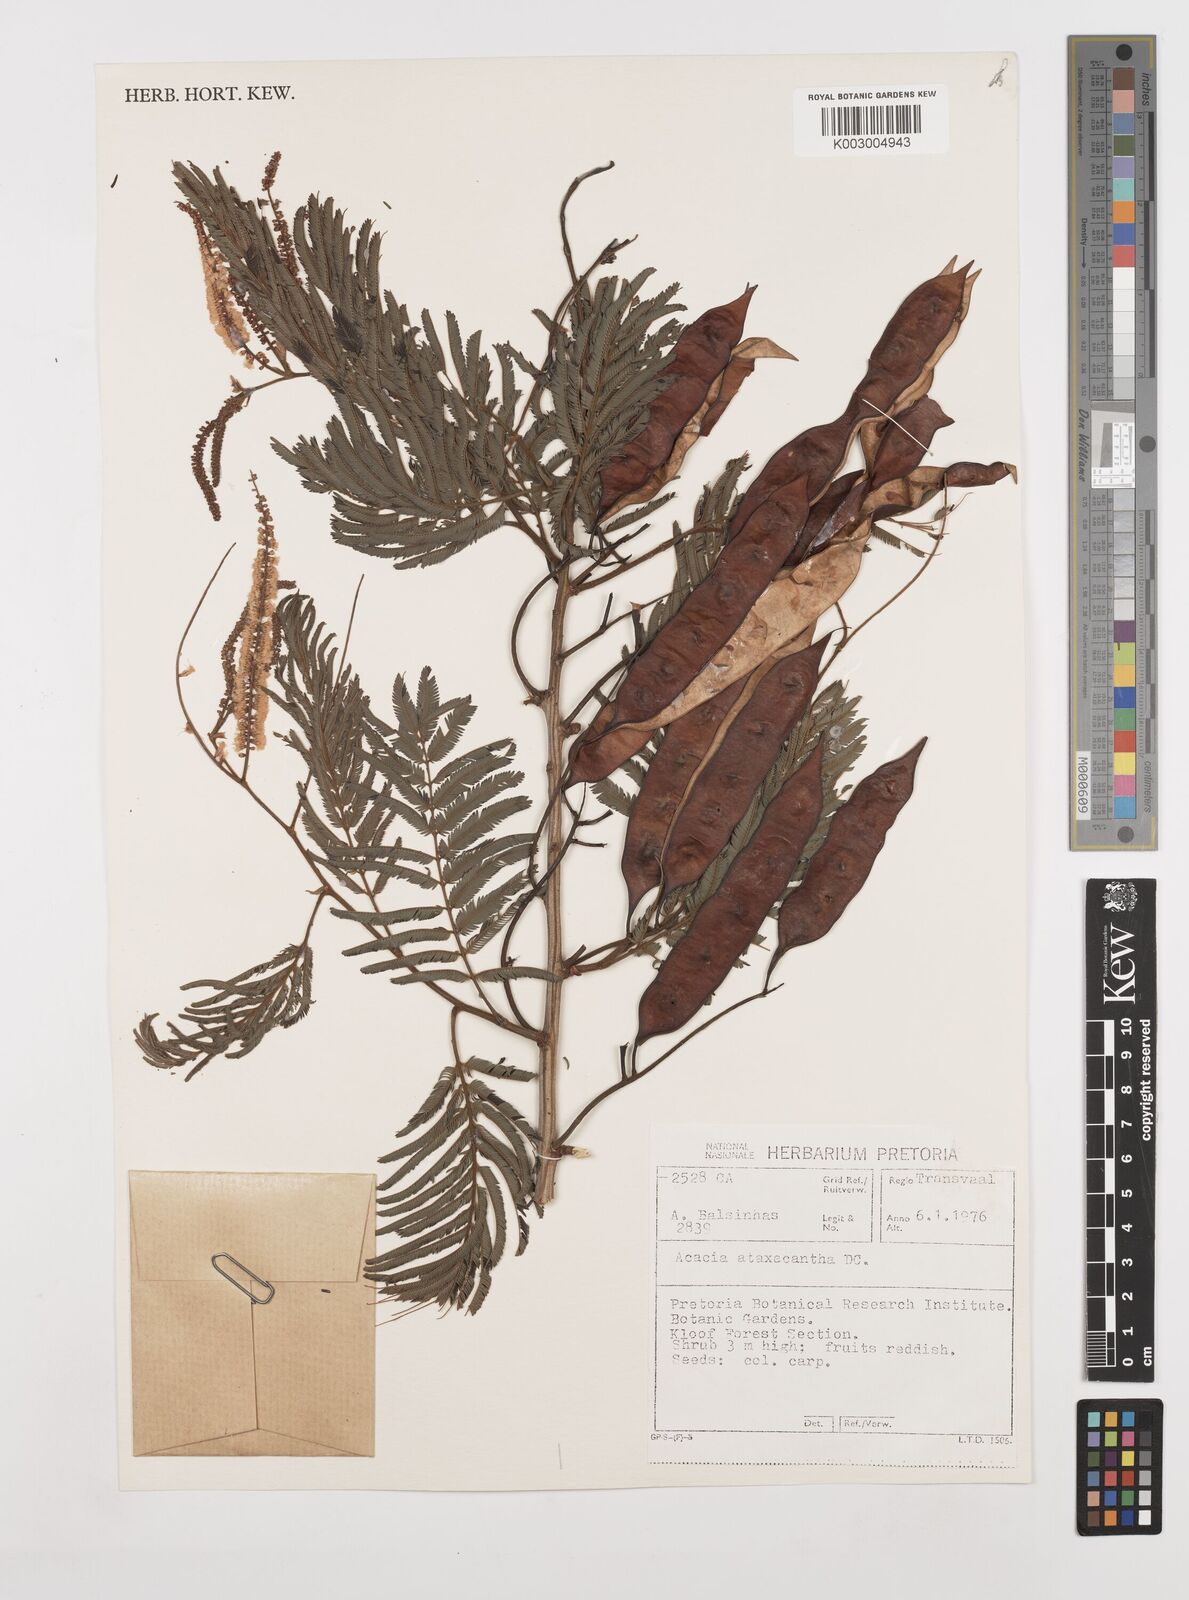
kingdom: Plantae
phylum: Tracheophyta
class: Magnoliopsida
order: Fabales
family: Fabaceae
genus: Senegalia
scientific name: Senegalia ataxacantha
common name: Flame acacia
